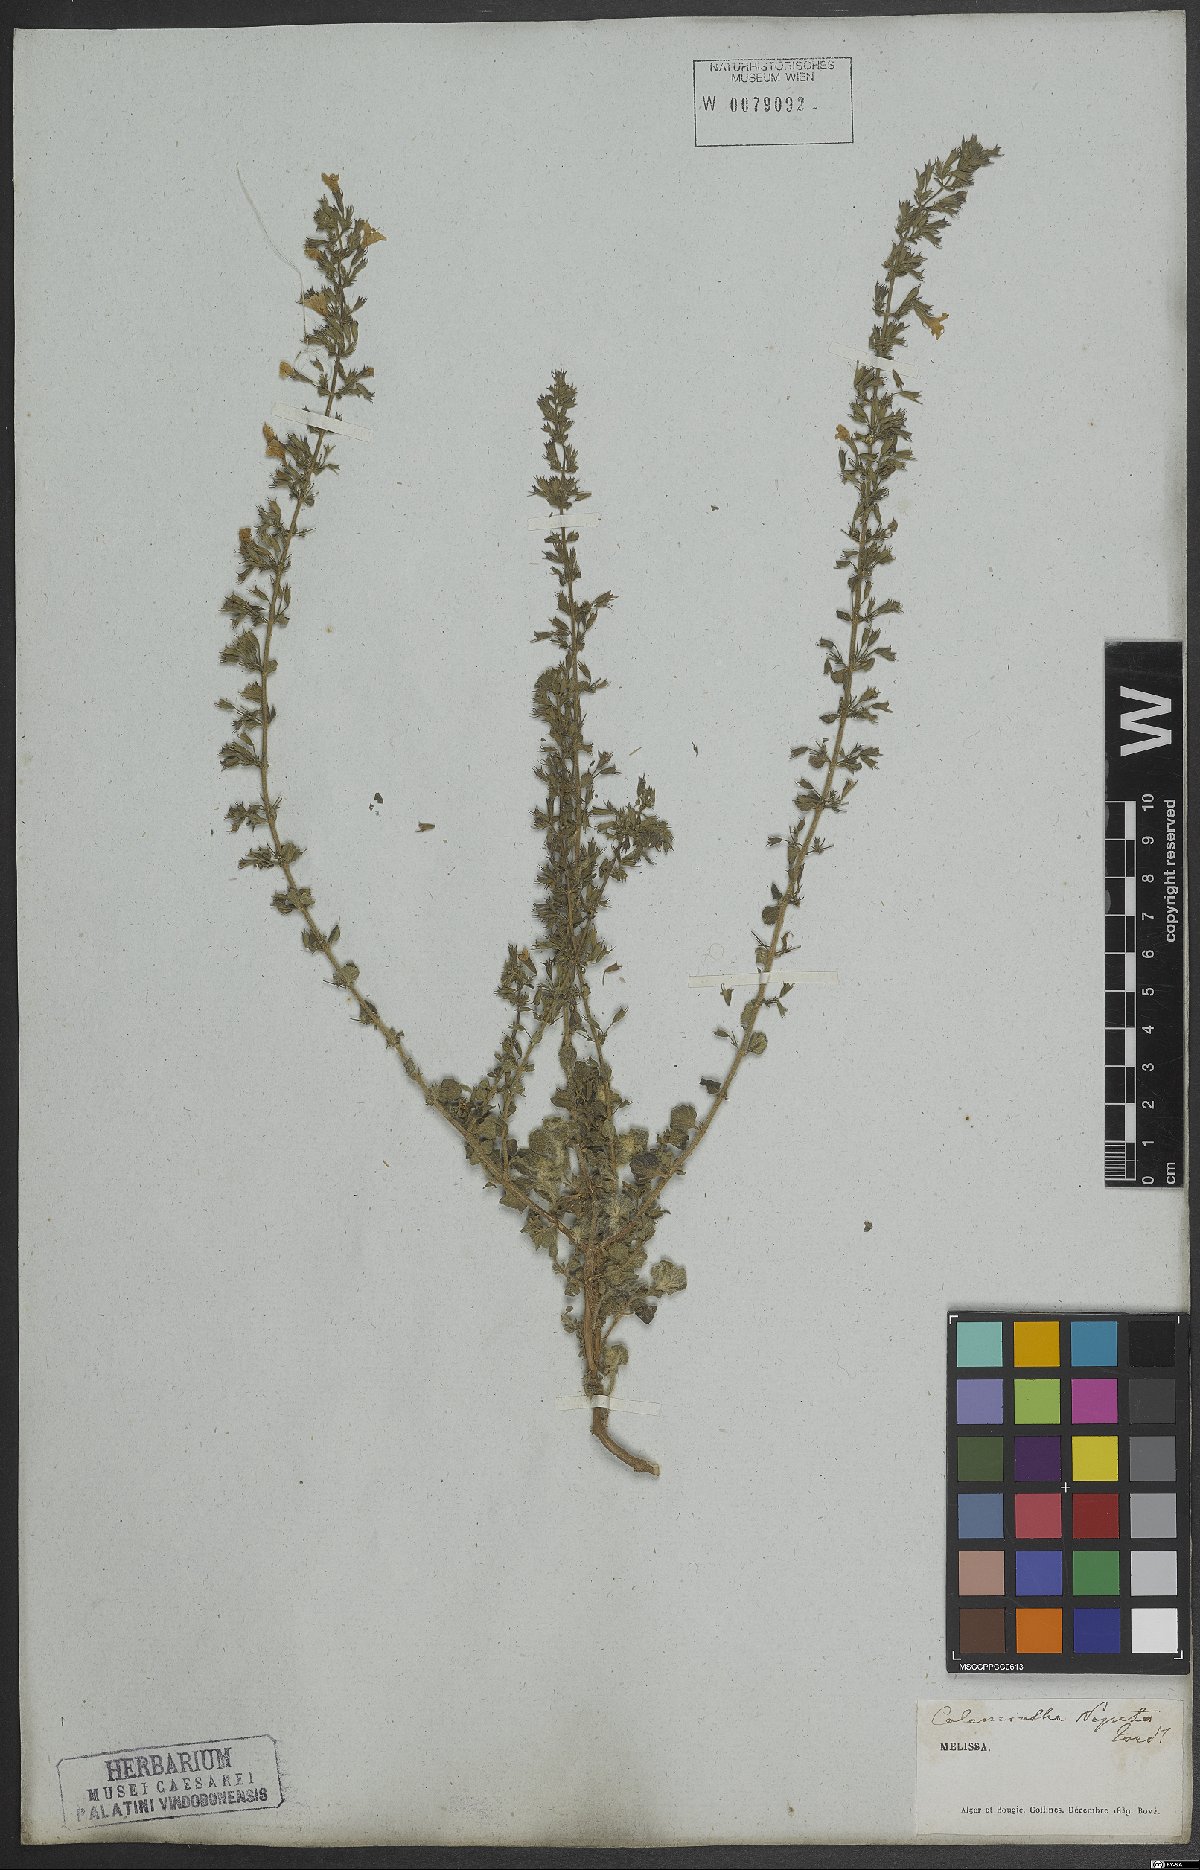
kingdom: Plantae
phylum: Tracheophyta
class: Magnoliopsida
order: Lamiales
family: Lamiaceae
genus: Clinopodium
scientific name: Clinopodium nepeta
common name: Lesser calamint
